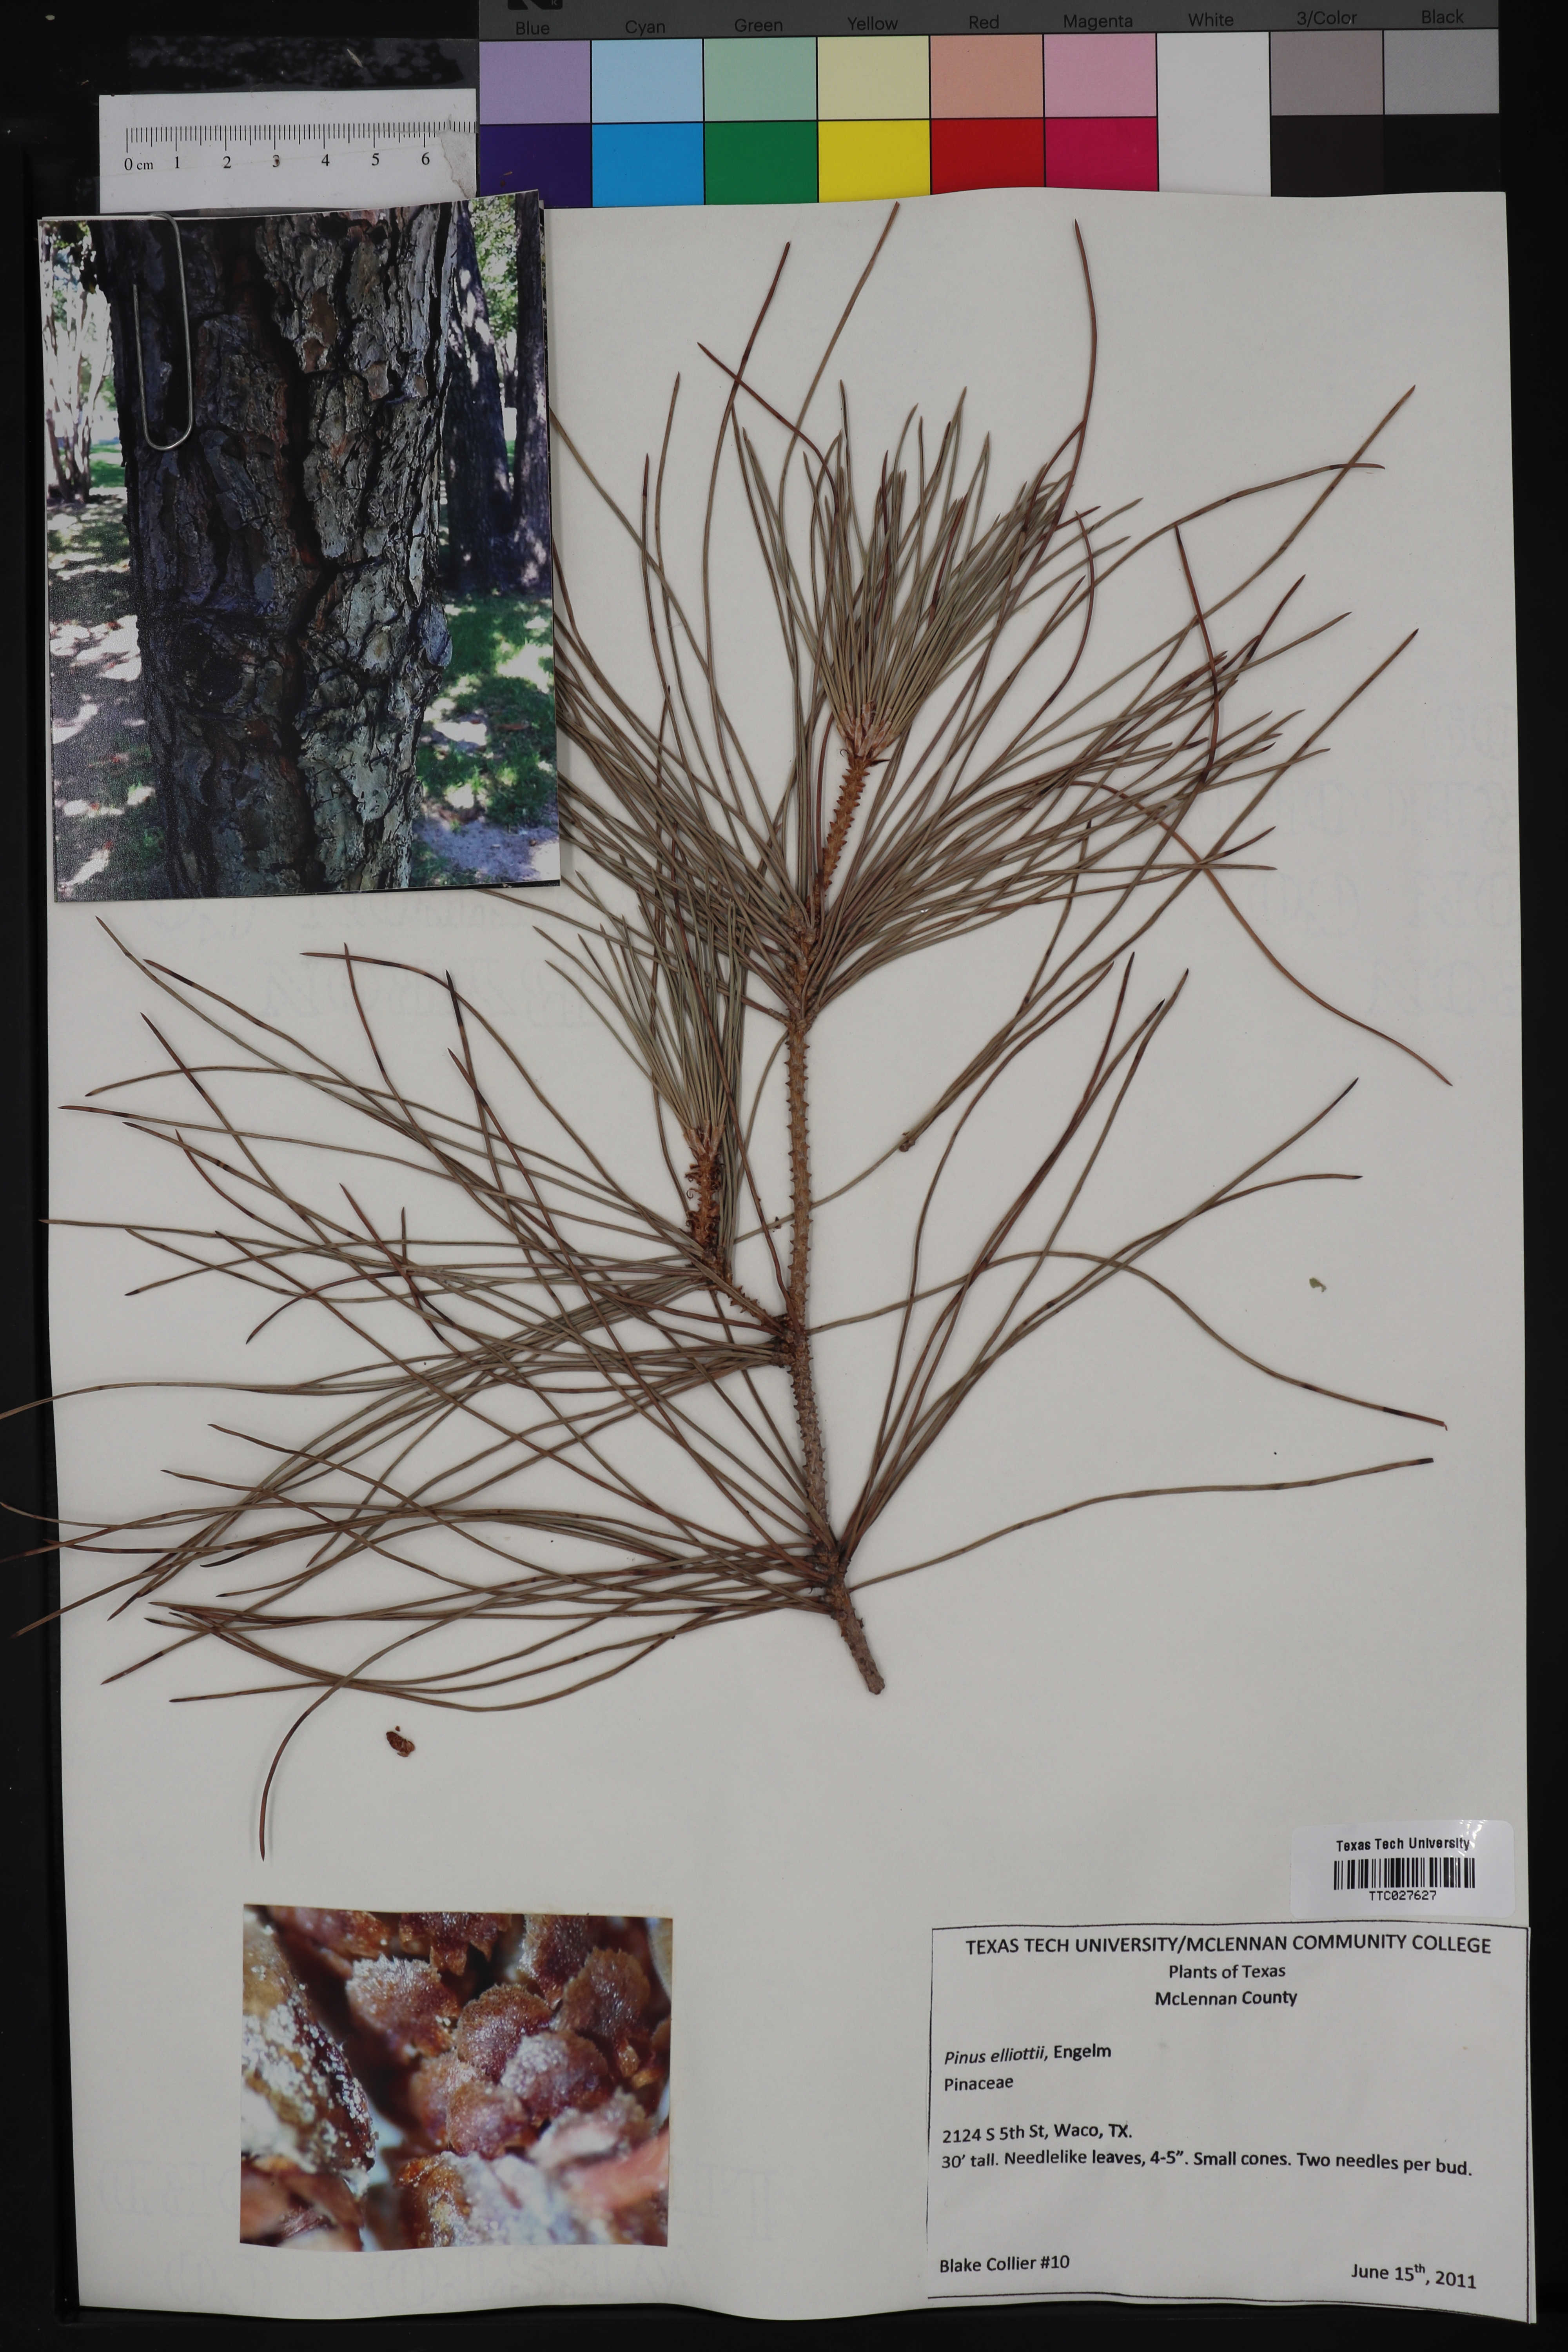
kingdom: Plantae
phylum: Tracheophyta
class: Pinopsida
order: Pinales
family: Pinaceae
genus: Pinus
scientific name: Pinus elliottii
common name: Slash pine
